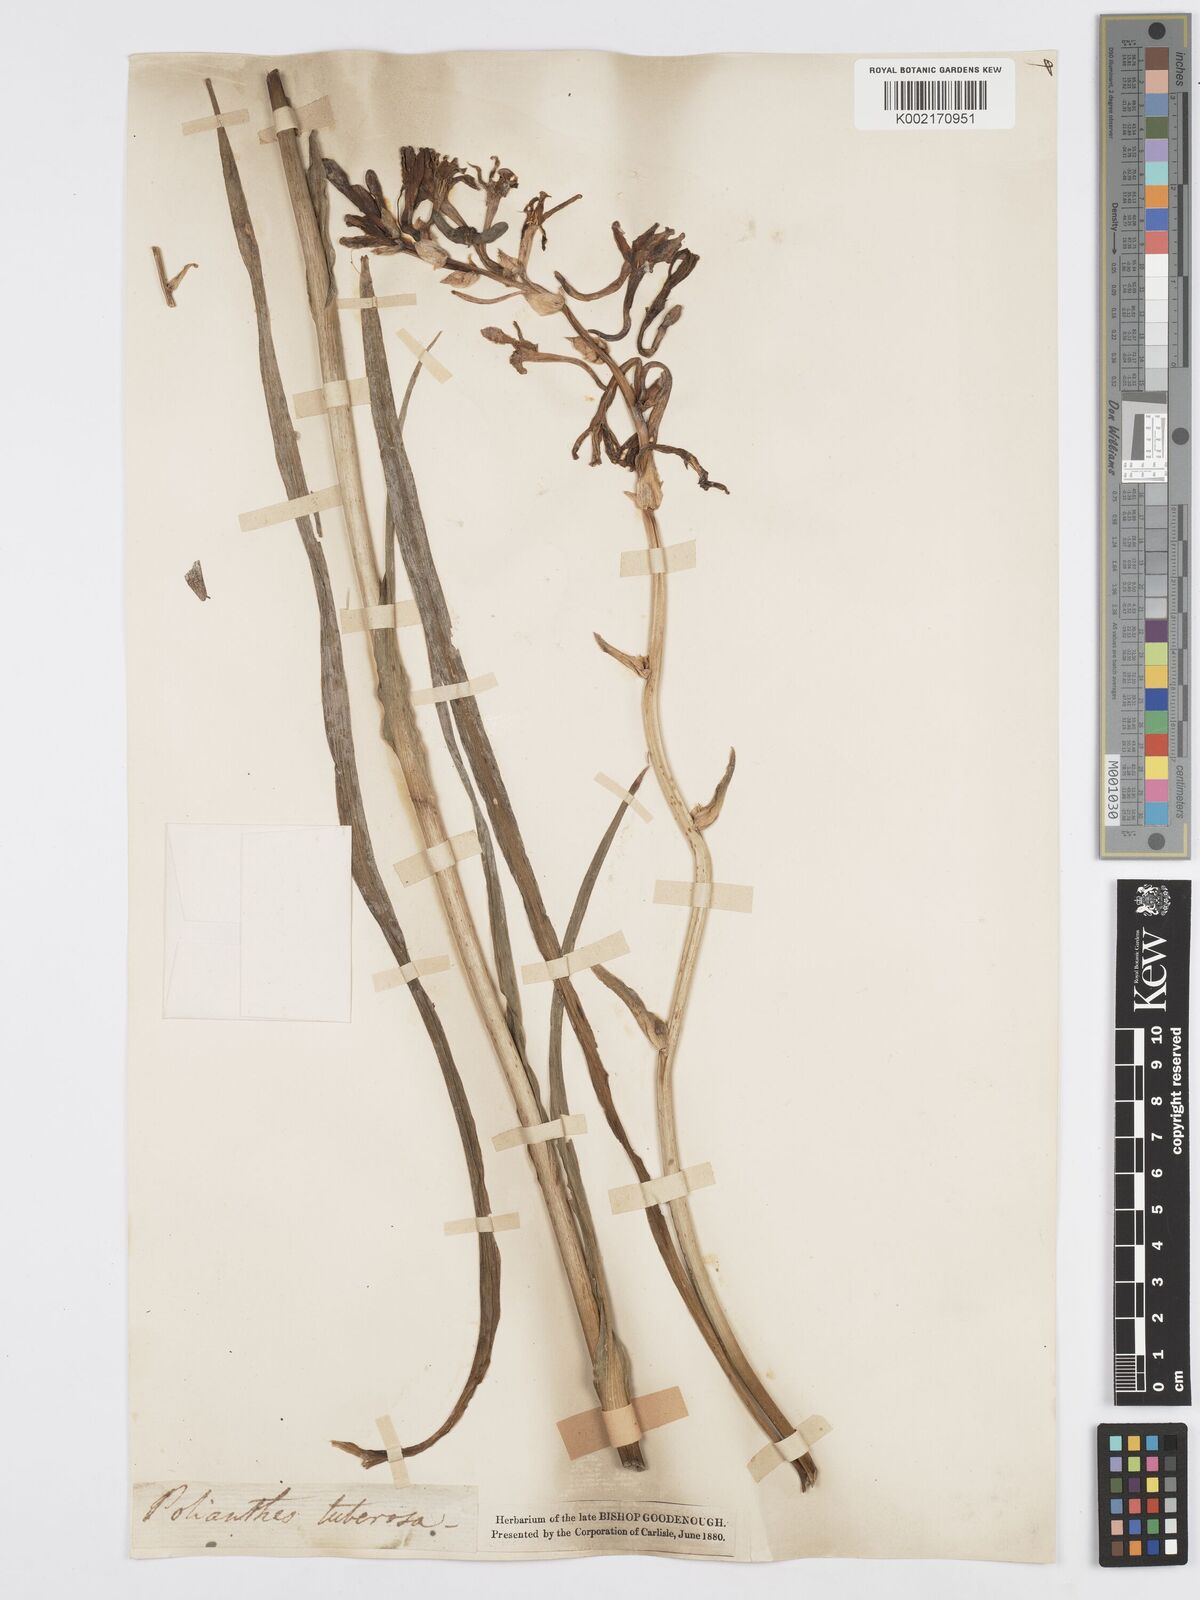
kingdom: Plantae
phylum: Tracheophyta
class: Liliopsida
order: Asparagales
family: Asparagaceae
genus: Agave
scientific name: Agave amica
